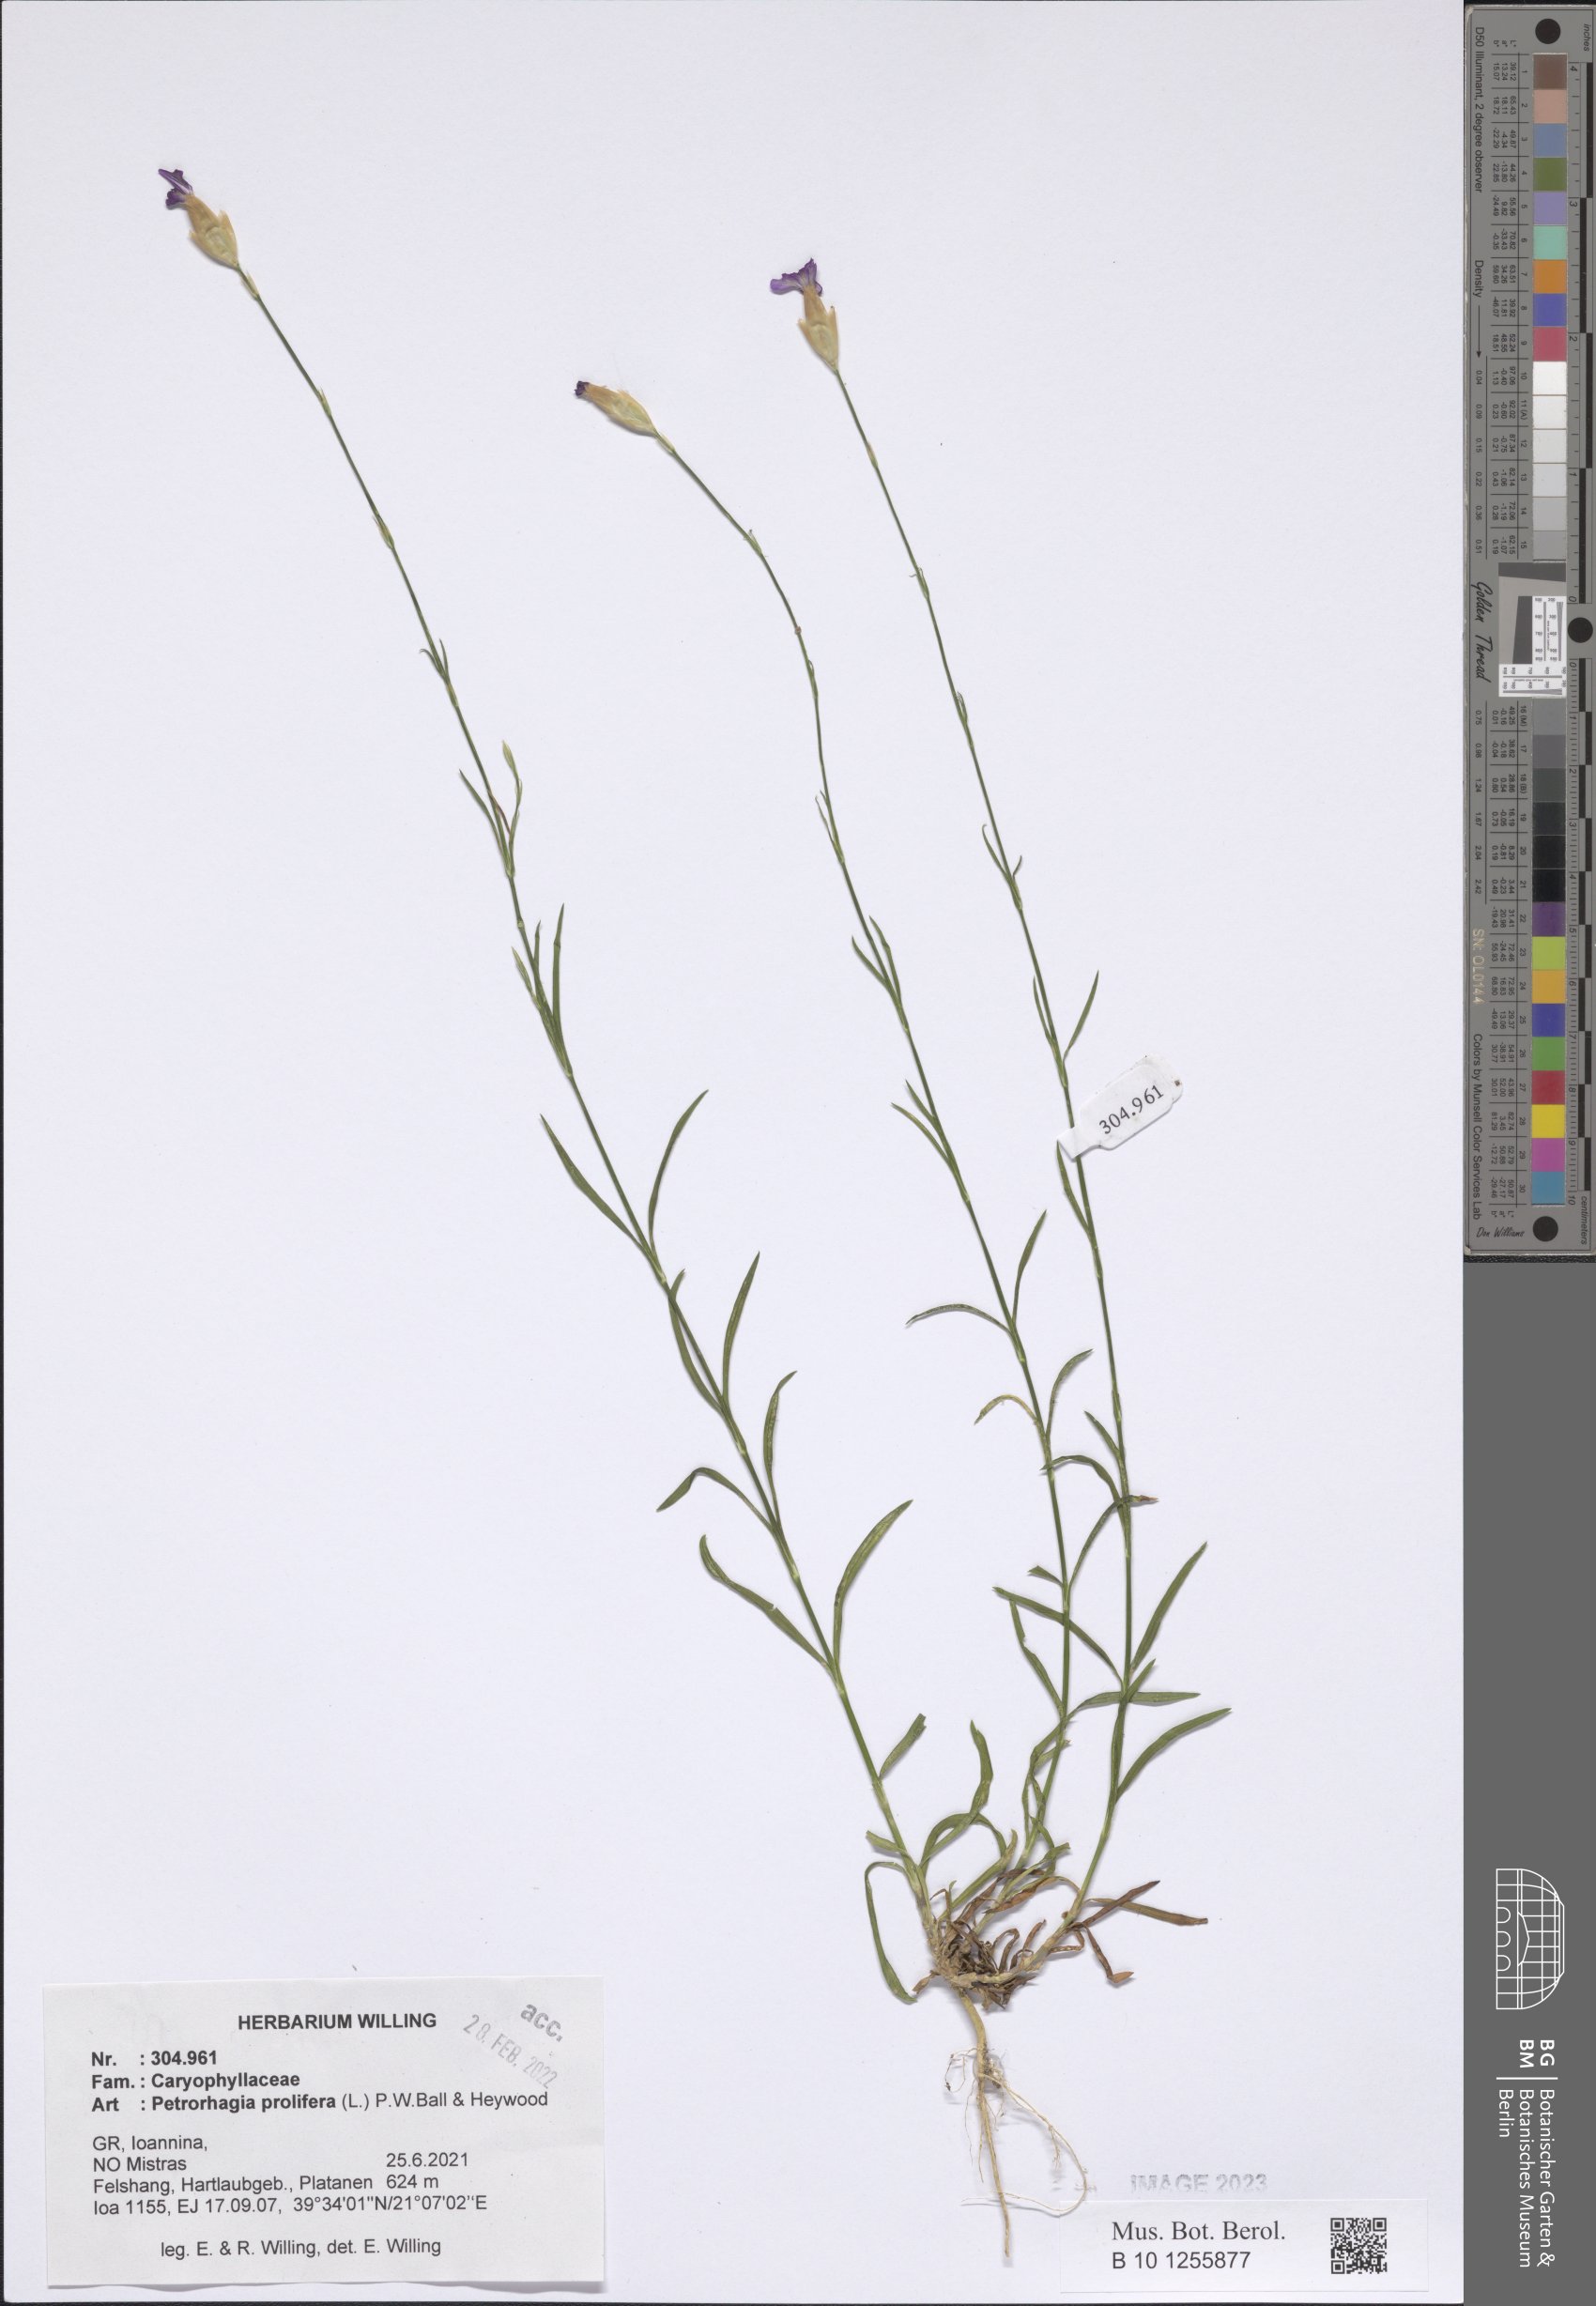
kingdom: Plantae
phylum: Tracheophyta
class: Magnoliopsida
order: Caryophyllales
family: Caryophyllaceae
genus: Petrorhagia
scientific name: Petrorhagia prolifera
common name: Proliferous pink
